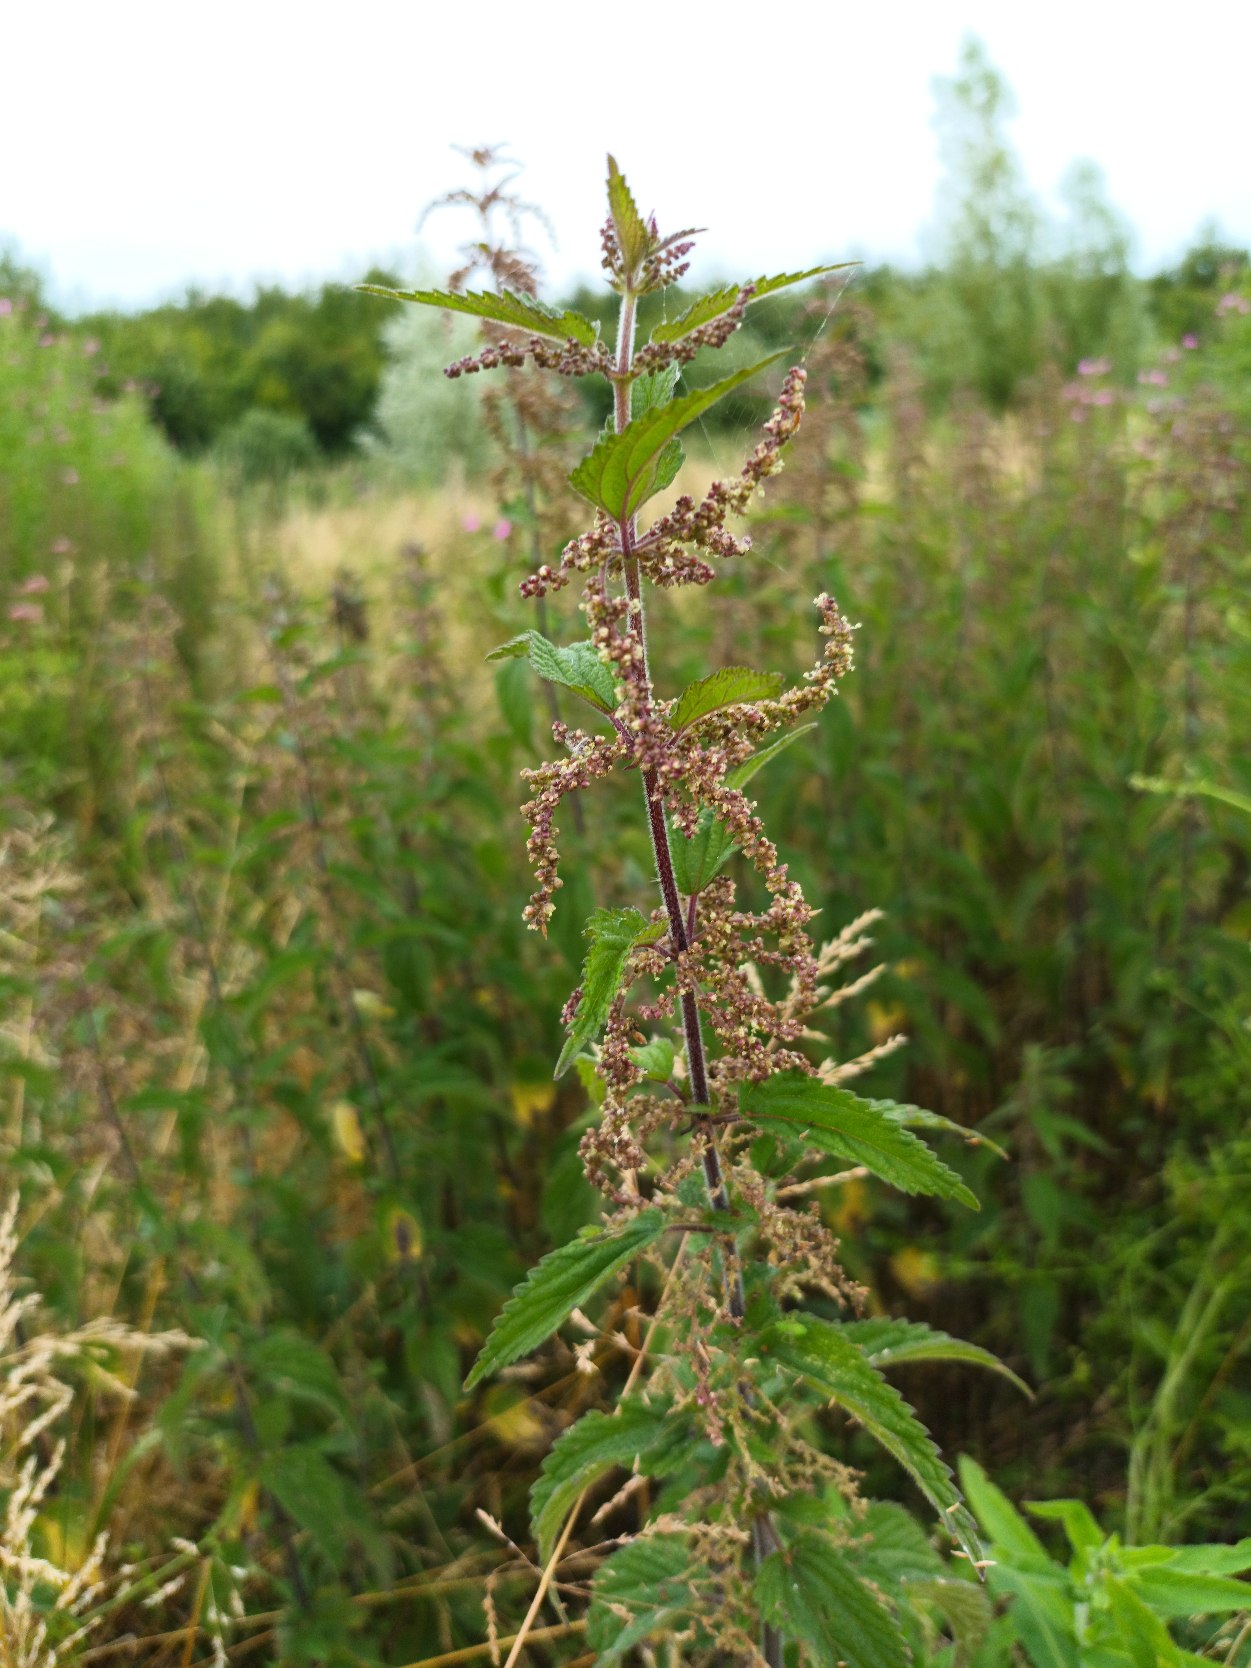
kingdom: Plantae
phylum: Tracheophyta
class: Magnoliopsida
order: Rosales
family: Urticaceae
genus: Urtica
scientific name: Urtica dioica
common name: Stor nælde
